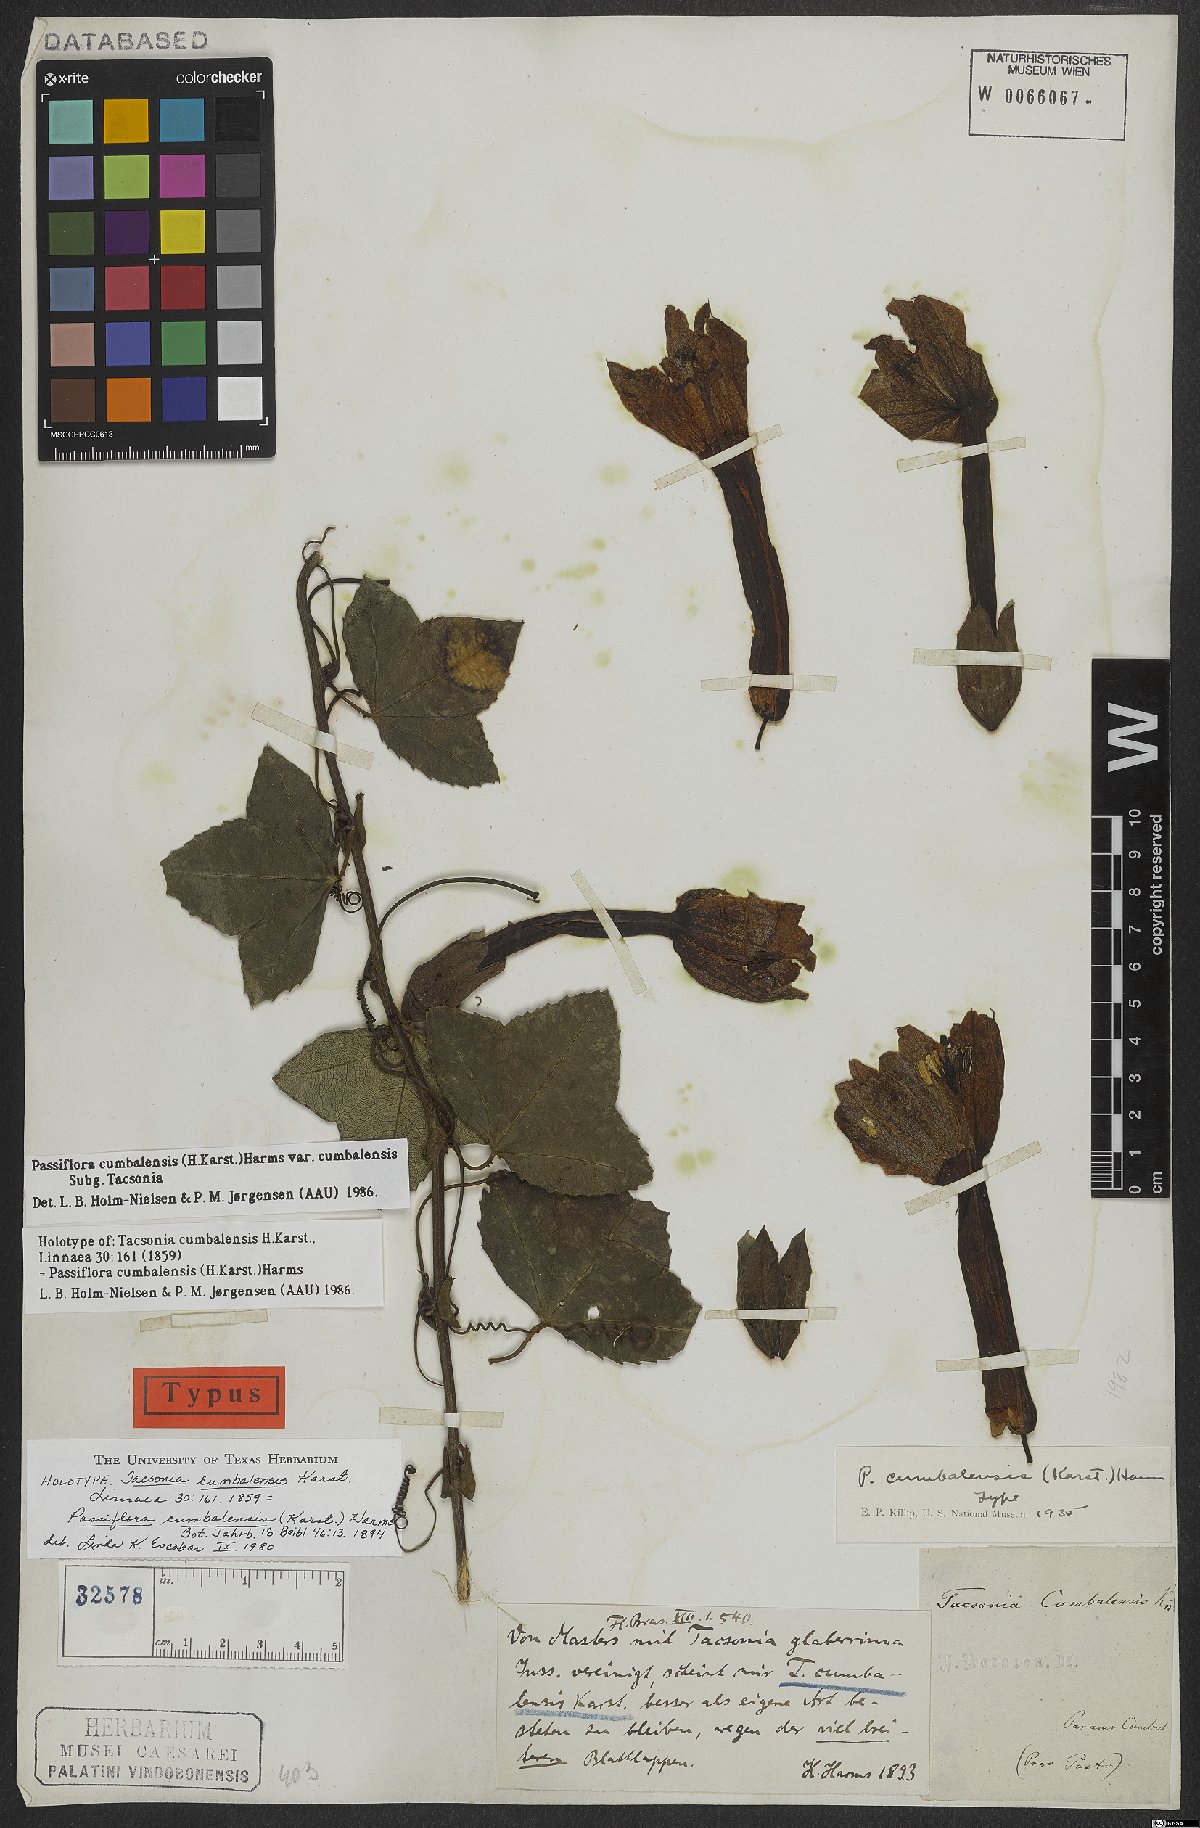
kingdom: Plantae
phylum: Tracheophyta
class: Magnoliopsida
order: Malpighiales
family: Passifloraceae
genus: Passiflora
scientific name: Passiflora cumbalensis
